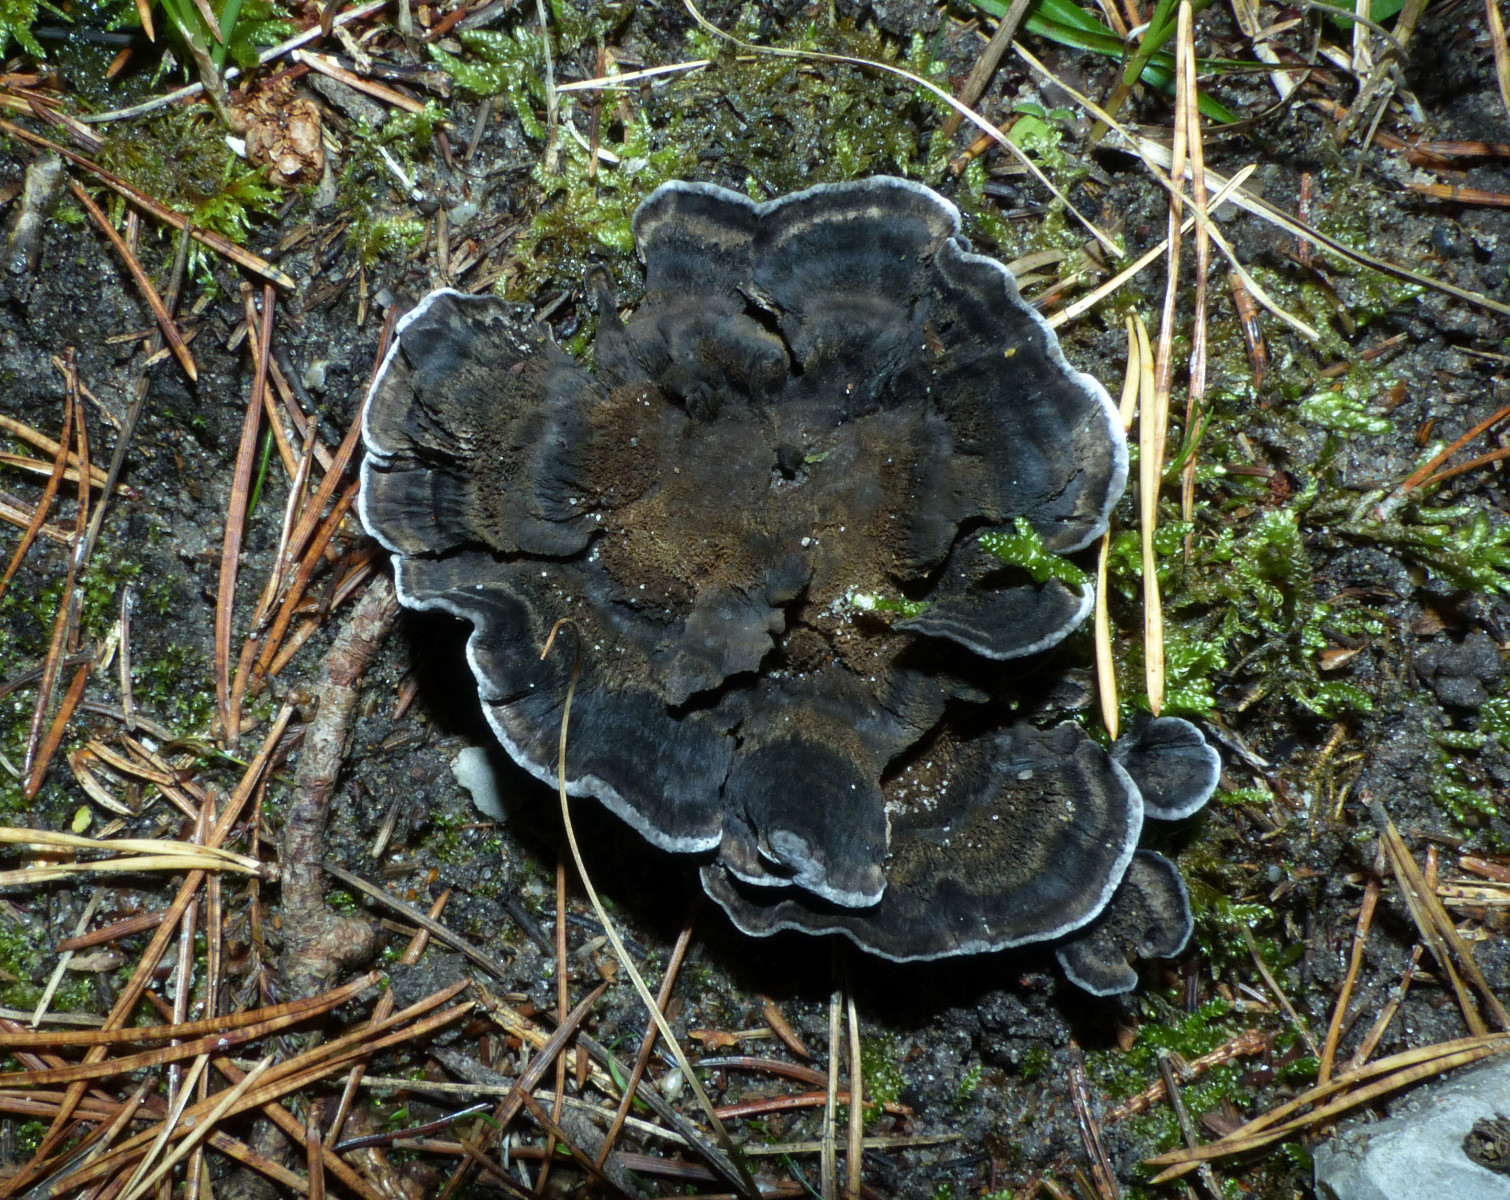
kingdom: Fungi
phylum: Basidiomycota
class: Agaricomycetes
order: Thelephorales
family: Thelephoraceae
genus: Phellodon
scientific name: Phellodon
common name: mørk duftpigsvamp
